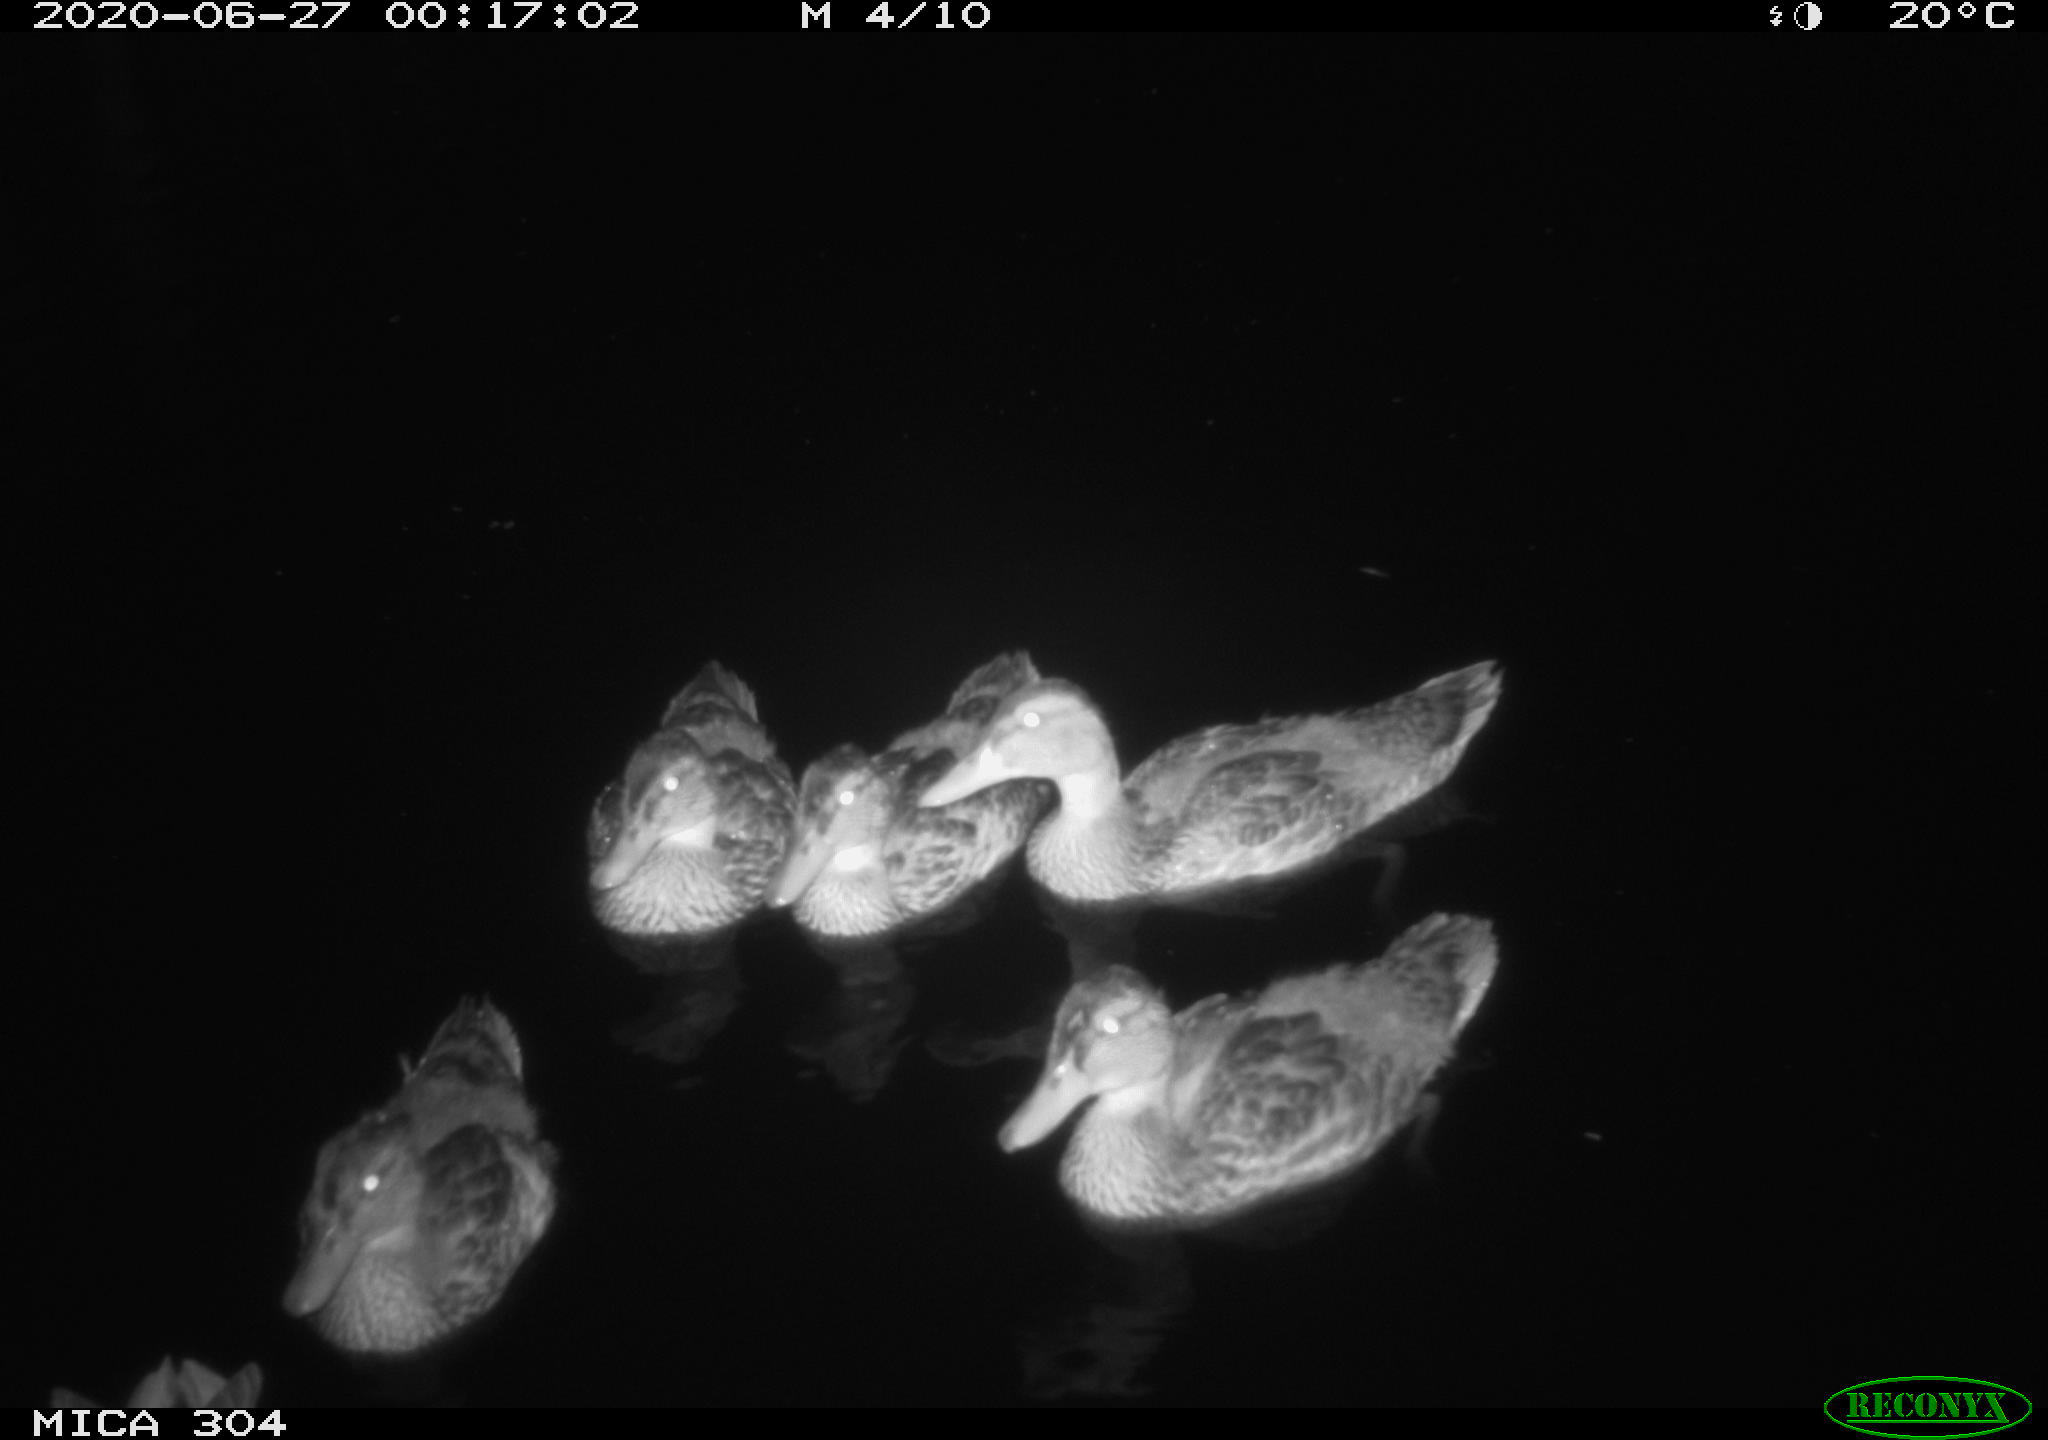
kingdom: Animalia
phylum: Chordata
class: Aves
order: Anseriformes
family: Anatidae
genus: Anas
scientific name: Anas platyrhynchos
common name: Mallard
